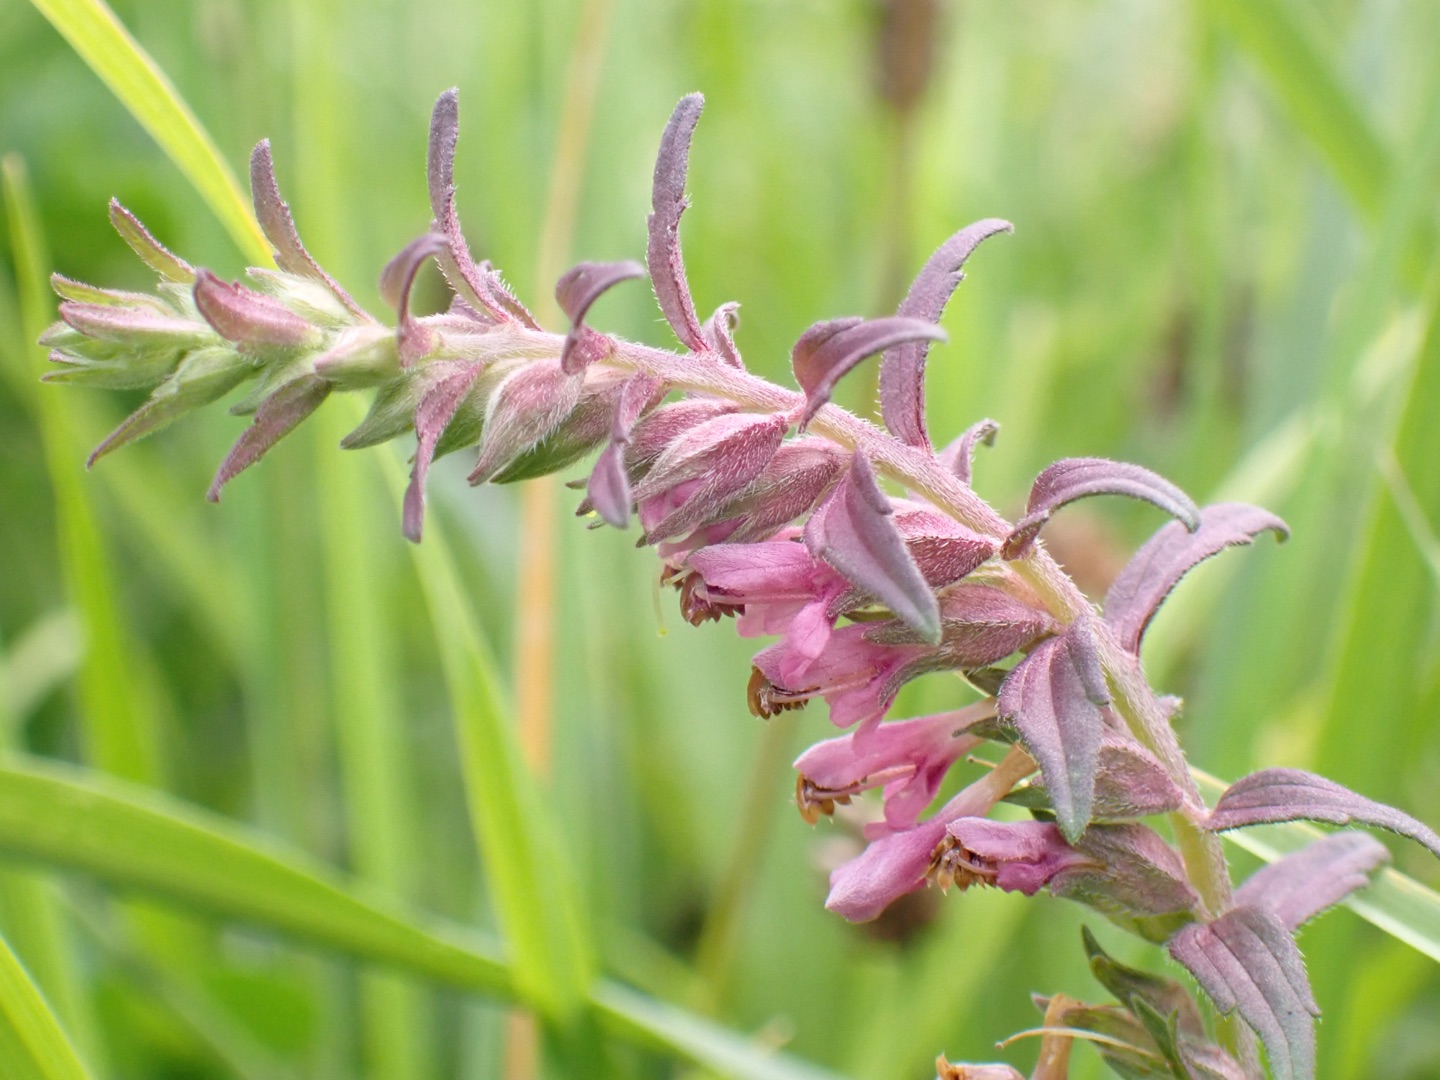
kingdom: Plantae
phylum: Tracheophyta
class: Magnoliopsida
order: Lamiales
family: Orobanchaceae
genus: Odontites
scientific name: Odontites vulgaris
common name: Høst-rødtop
